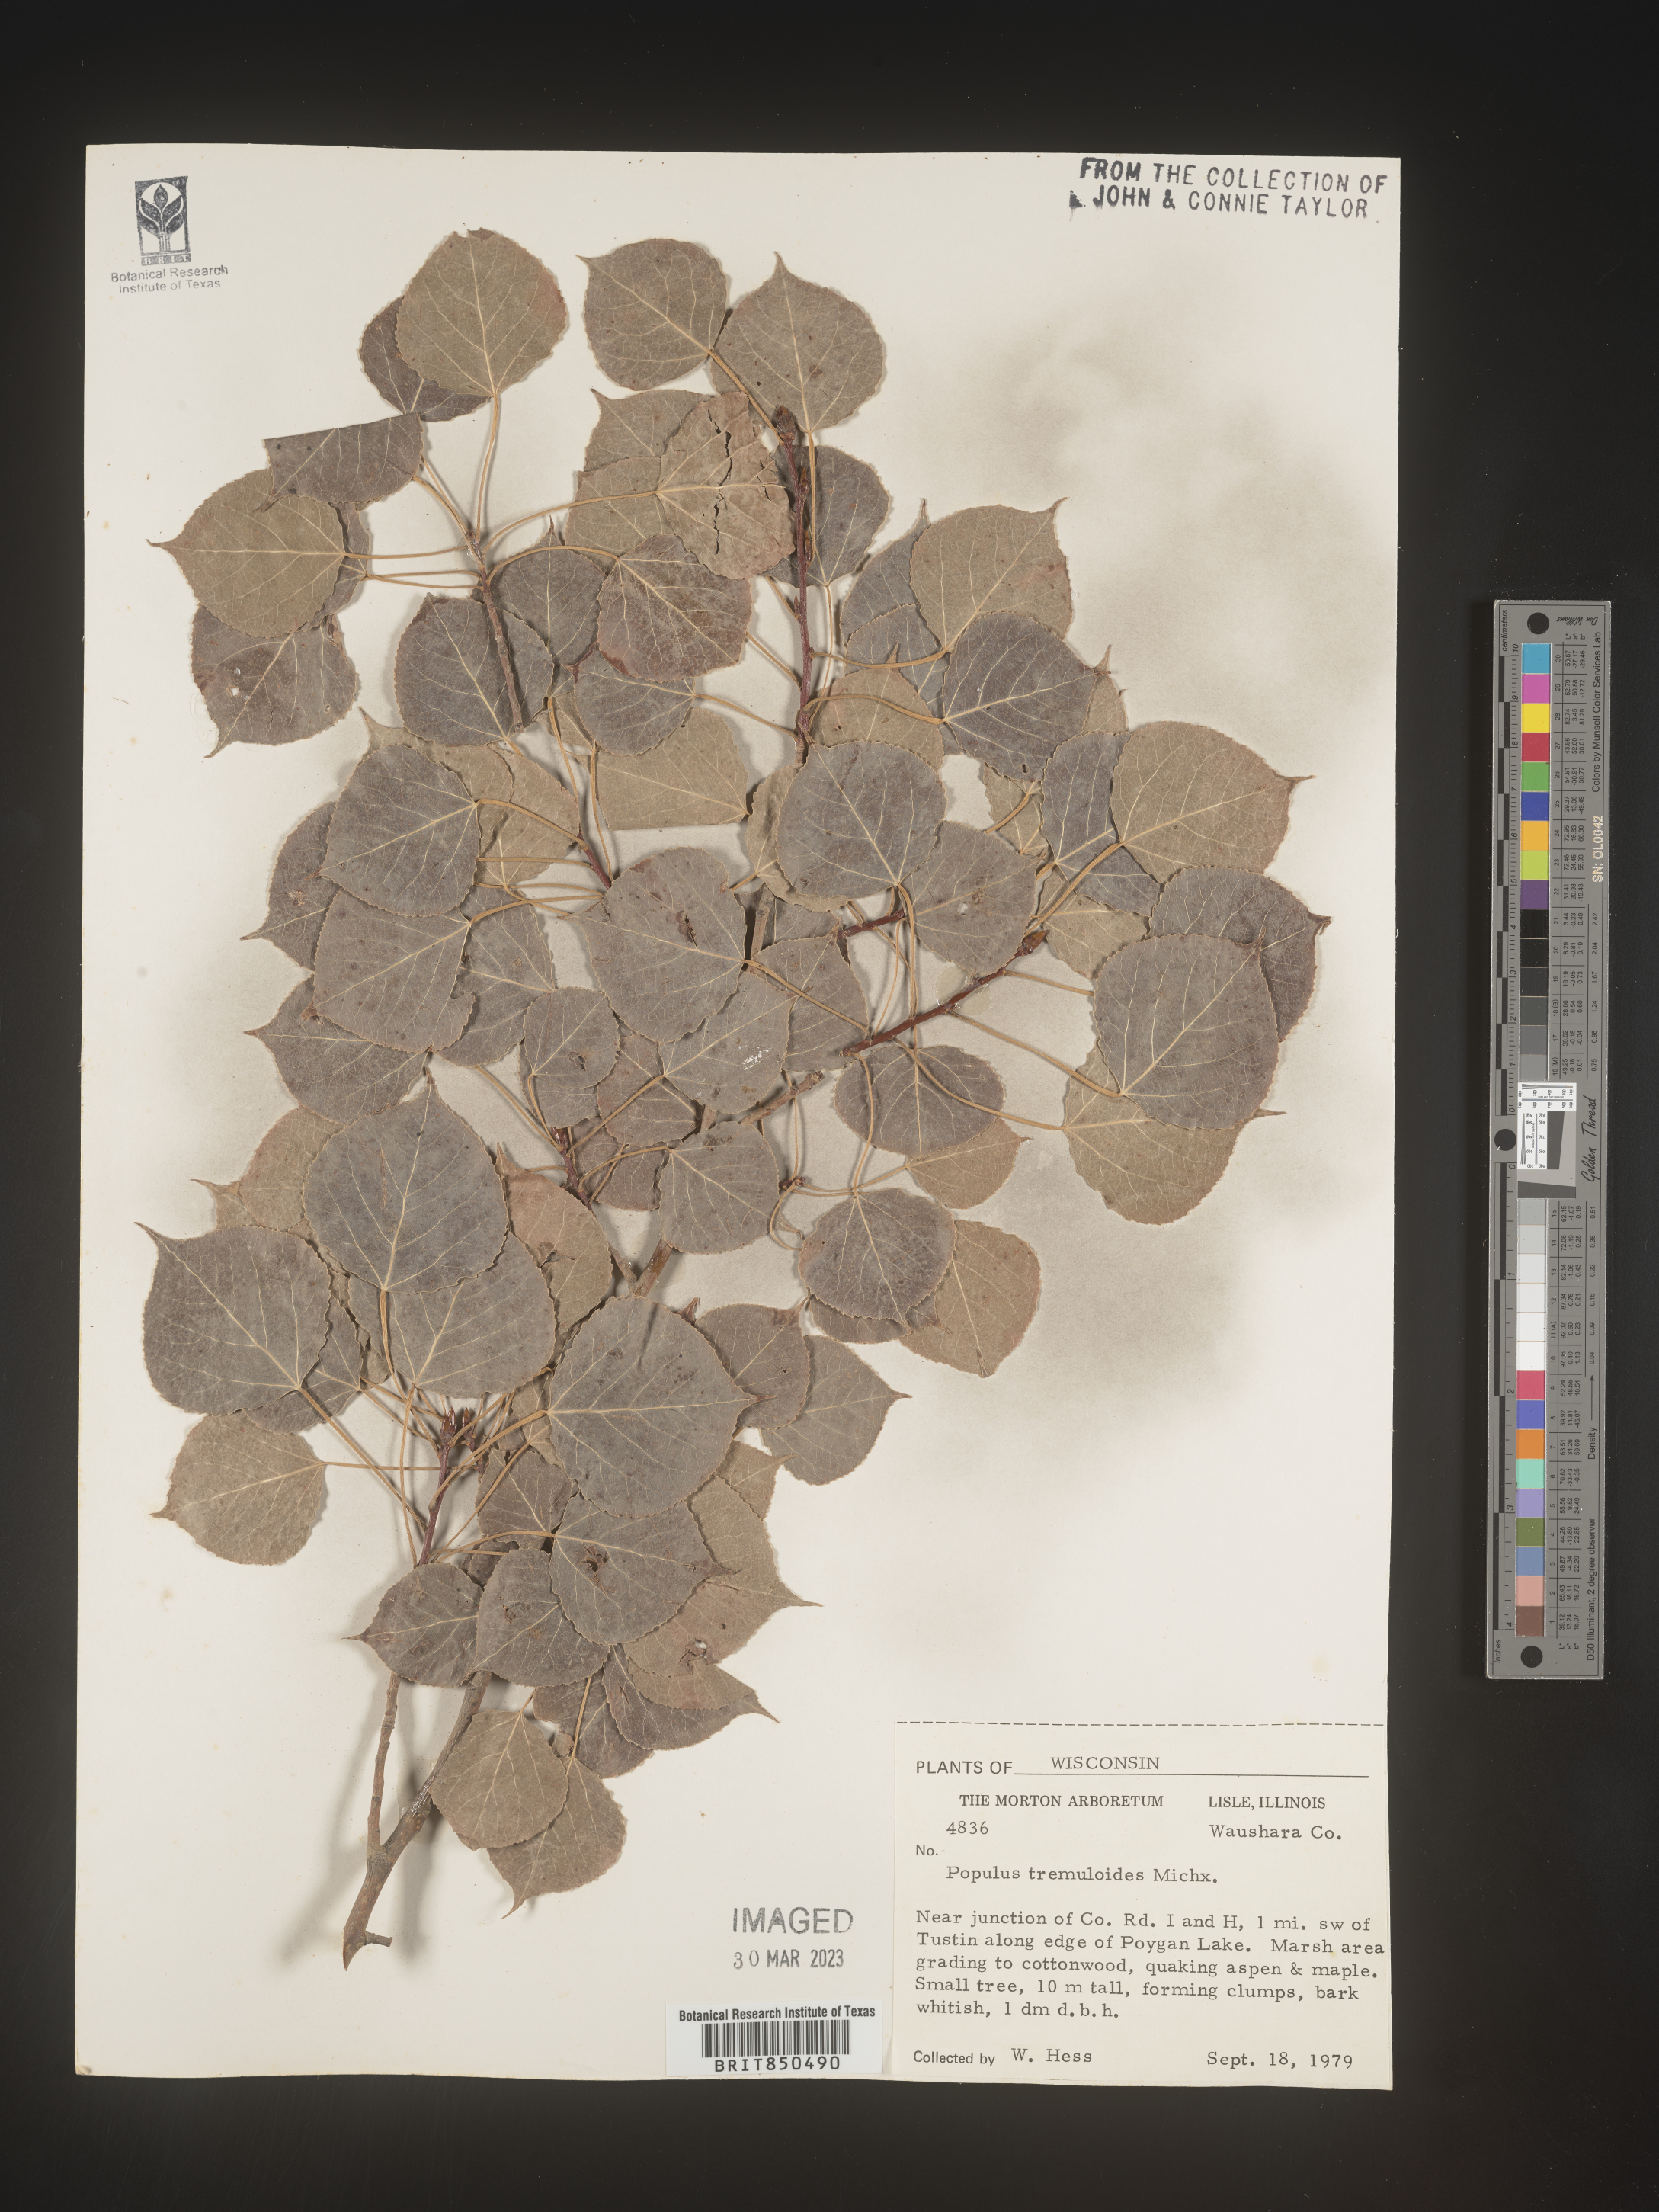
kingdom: Plantae
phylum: Tracheophyta
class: Magnoliopsida
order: Malpighiales
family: Salicaceae
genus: Populus
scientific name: Populus tremuloides
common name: Quaking aspen
